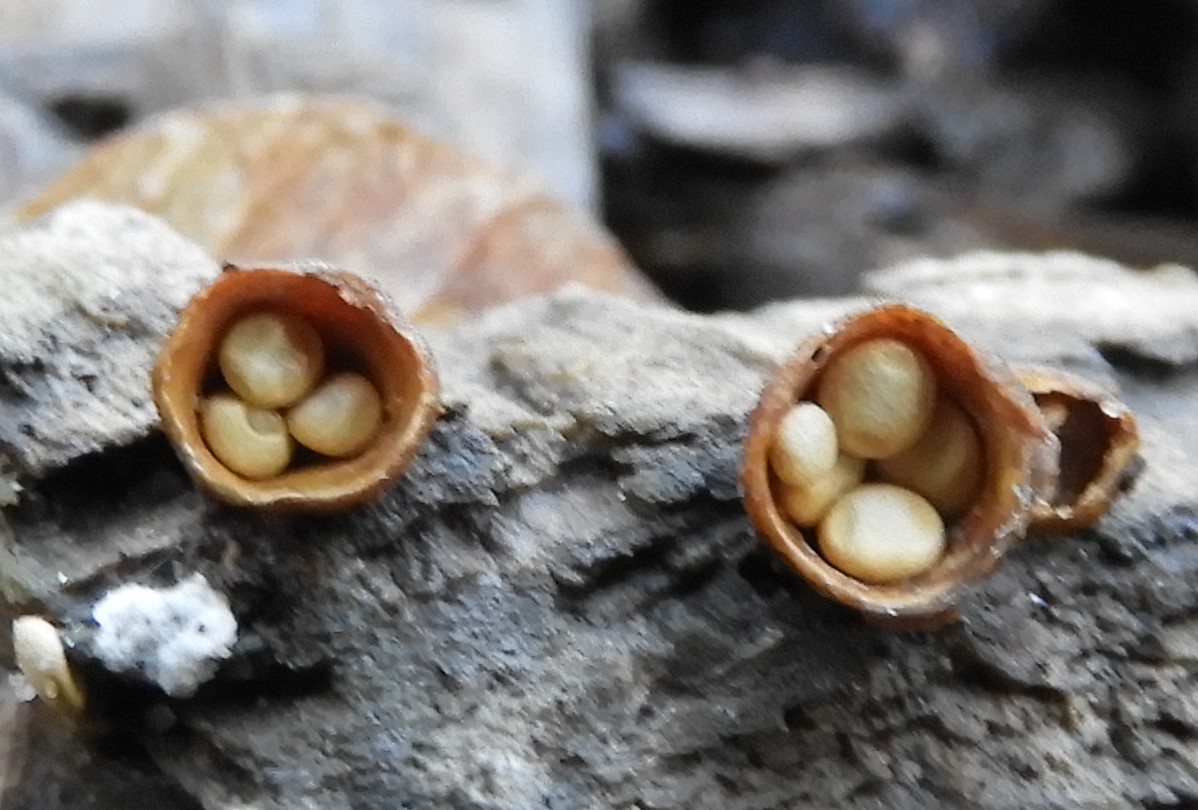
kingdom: Fungi
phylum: Basidiomycota
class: Agaricomycetes
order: Agaricales
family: Nidulariaceae
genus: Crucibulum
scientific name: Crucibulum crucibuliforme
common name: krukkesvamp
